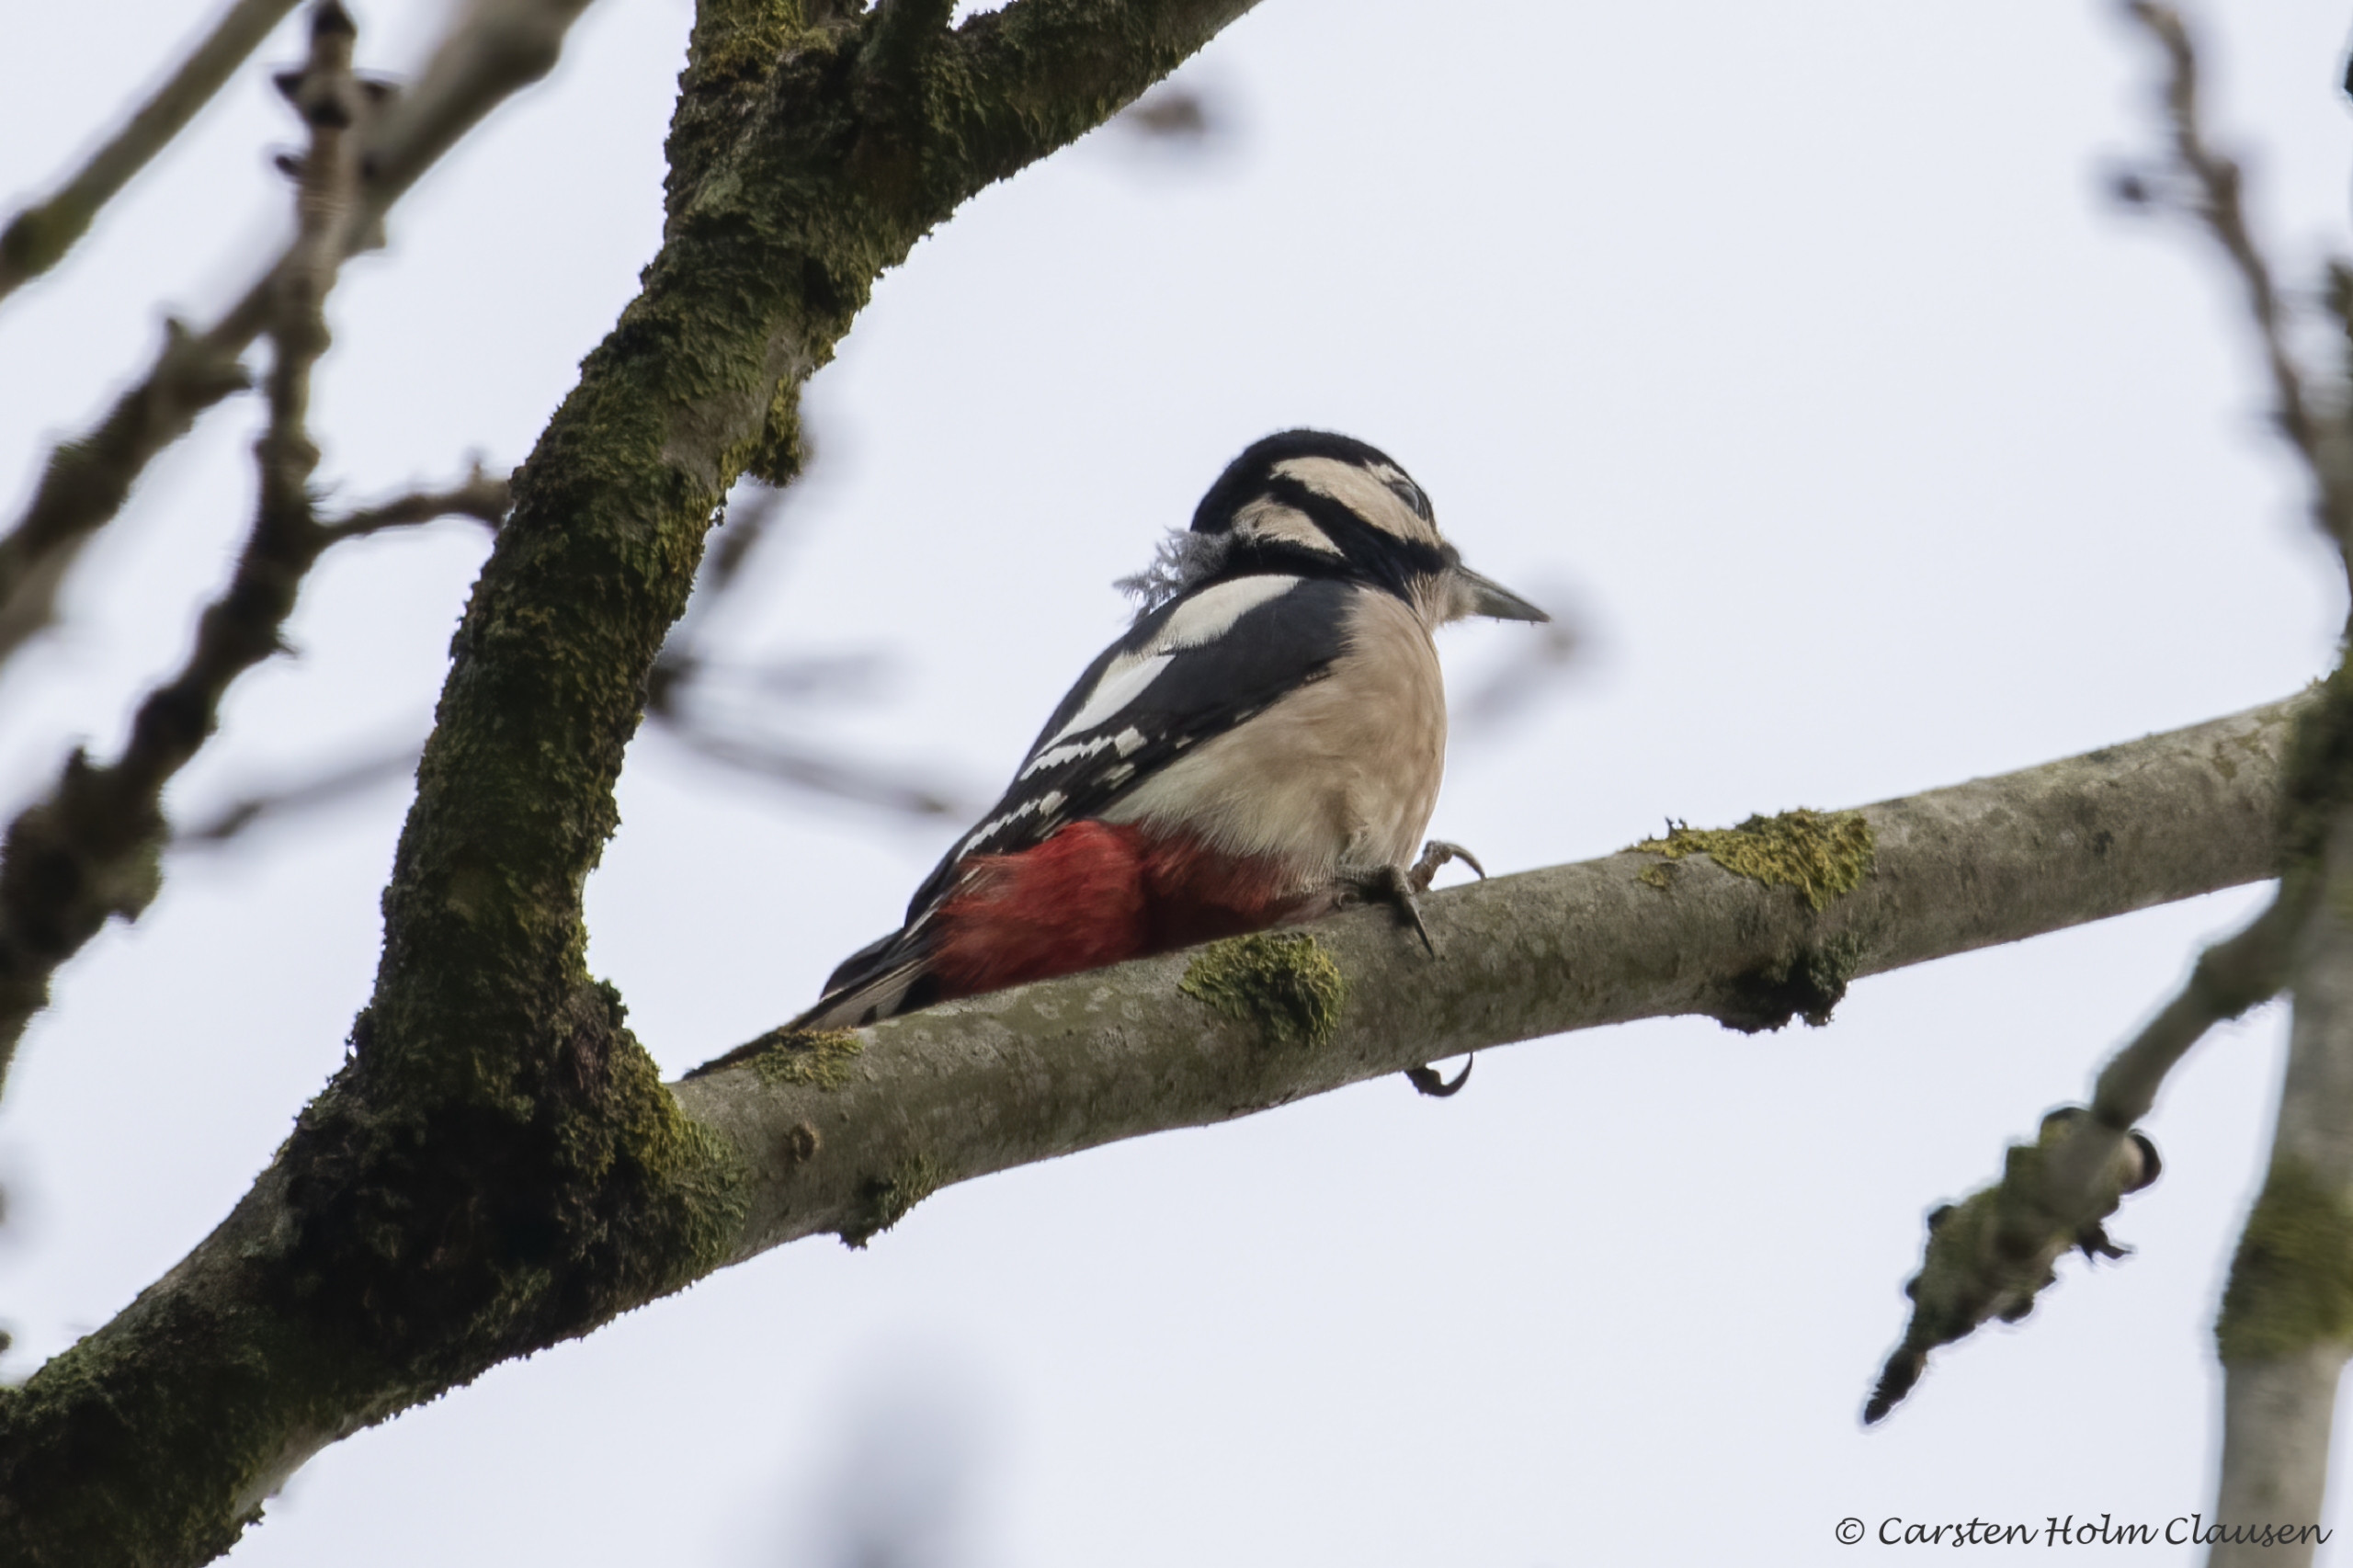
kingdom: Animalia
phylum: Chordata
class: Aves
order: Piciformes
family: Picidae
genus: Dendrocopos
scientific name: Dendrocopos major
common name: Stor flagspætte
